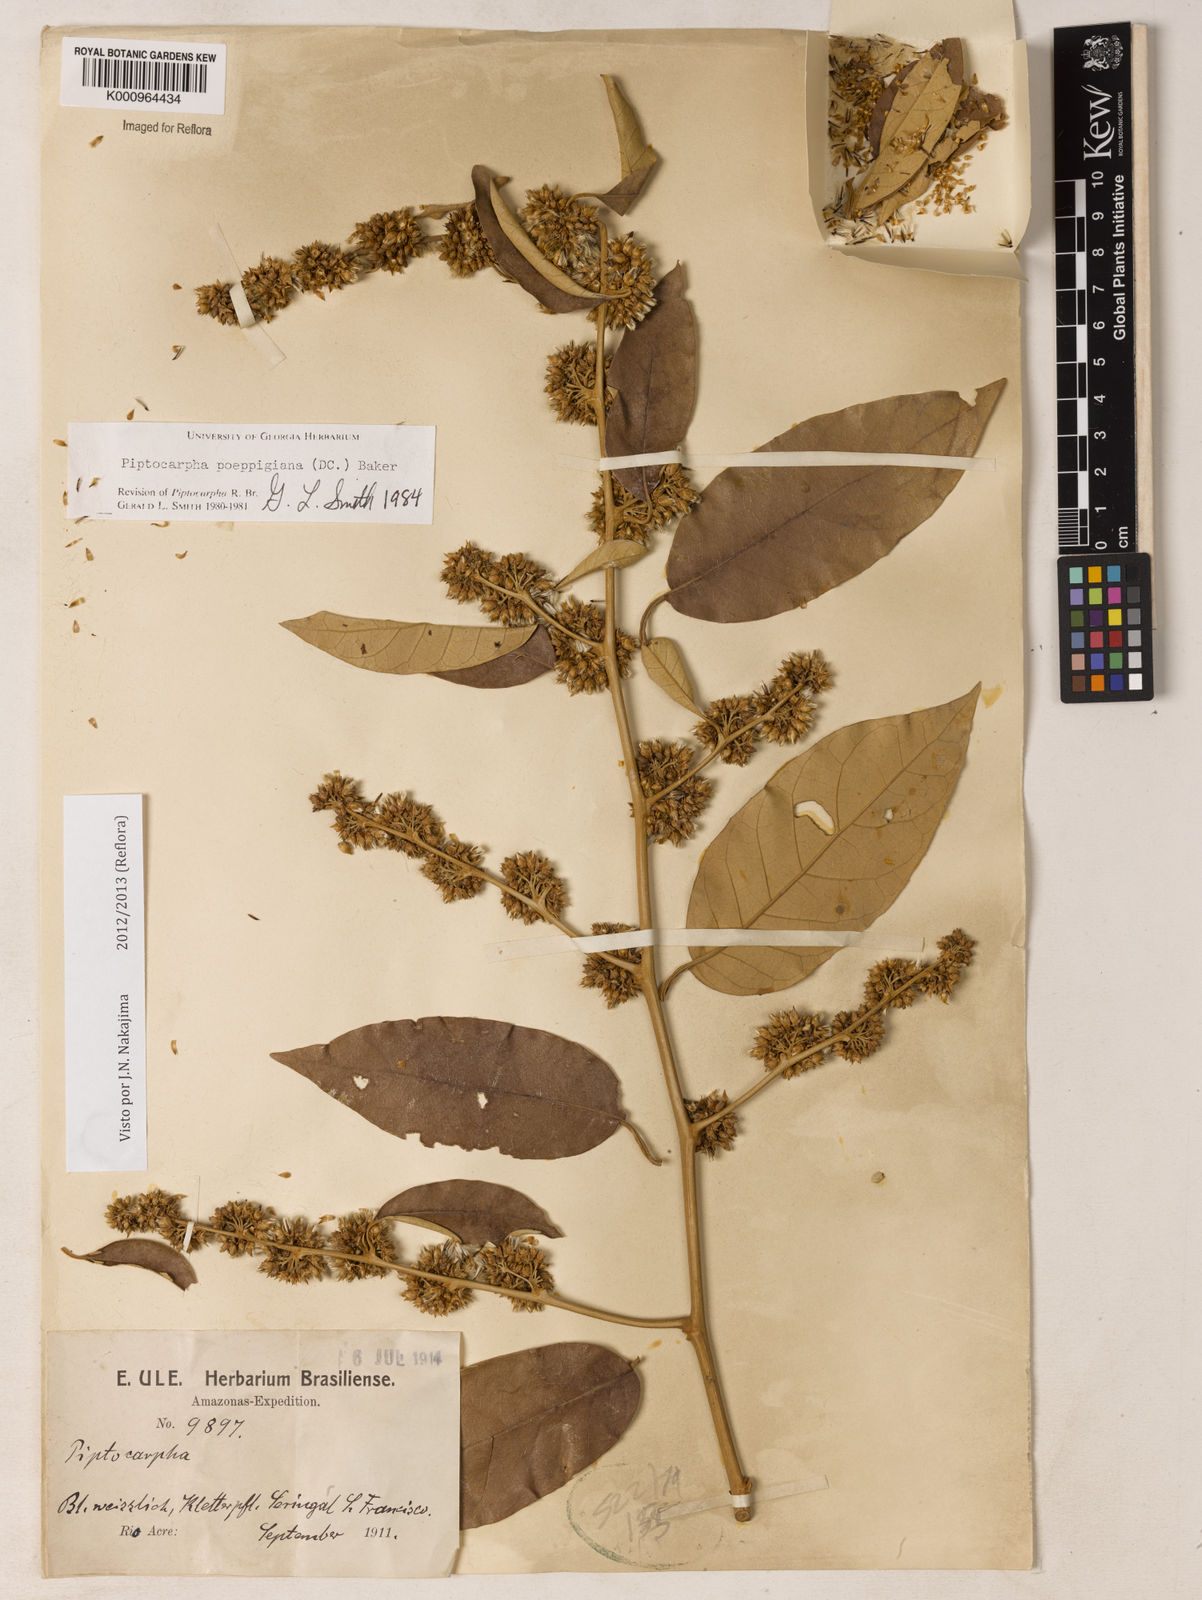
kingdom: Plantae
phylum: Tracheophyta
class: Magnoliopsida
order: Asterales
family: Asteraceae
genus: Piptocarpha
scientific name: Piptocarpha poeppigiana
